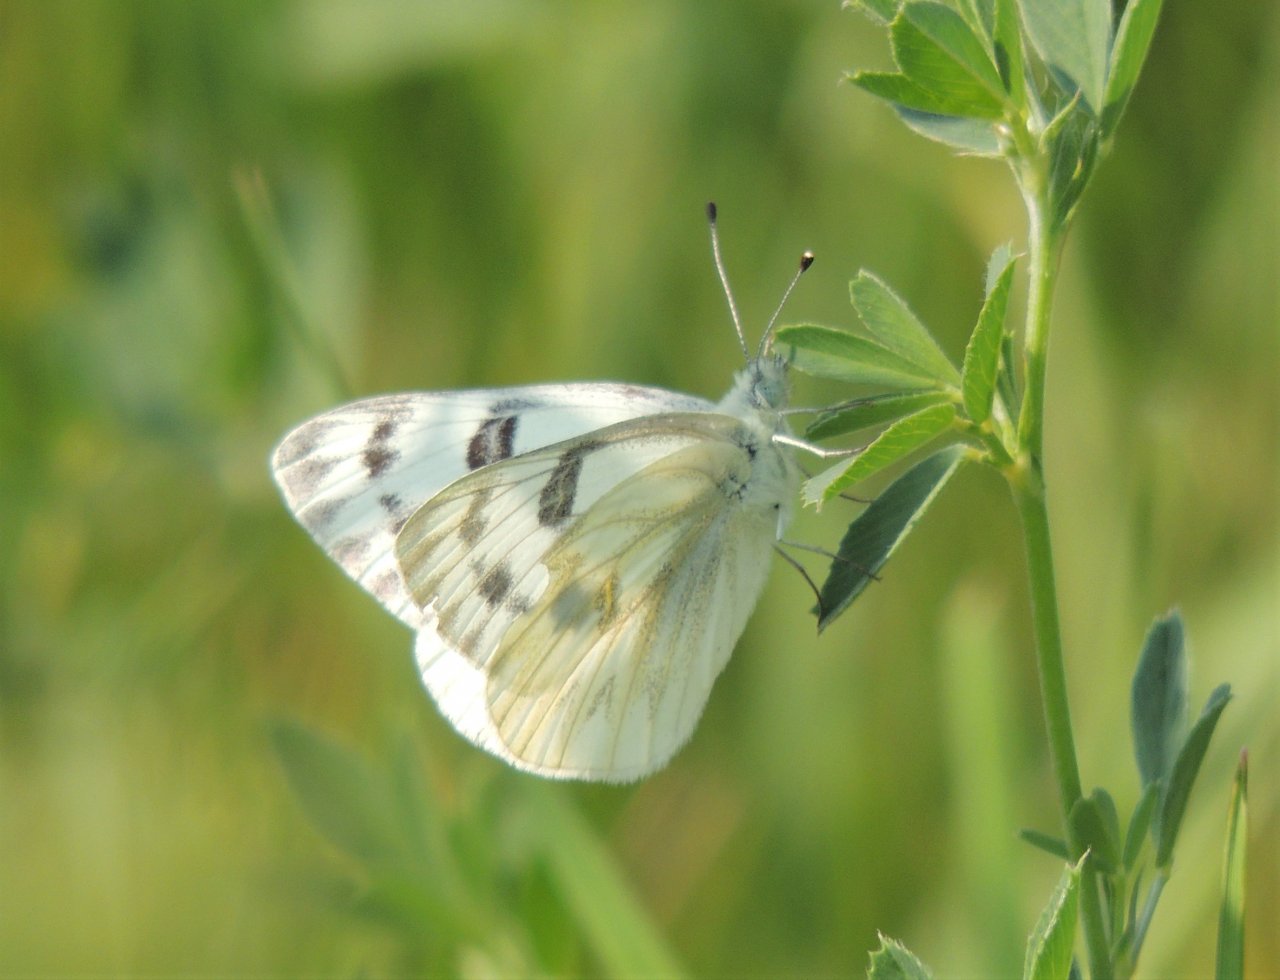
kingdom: Animalia
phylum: Arthropoda
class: Insecta
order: Lepidoptera
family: Pieridae
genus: Pontia
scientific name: Pontia occidentalis
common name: Western White
